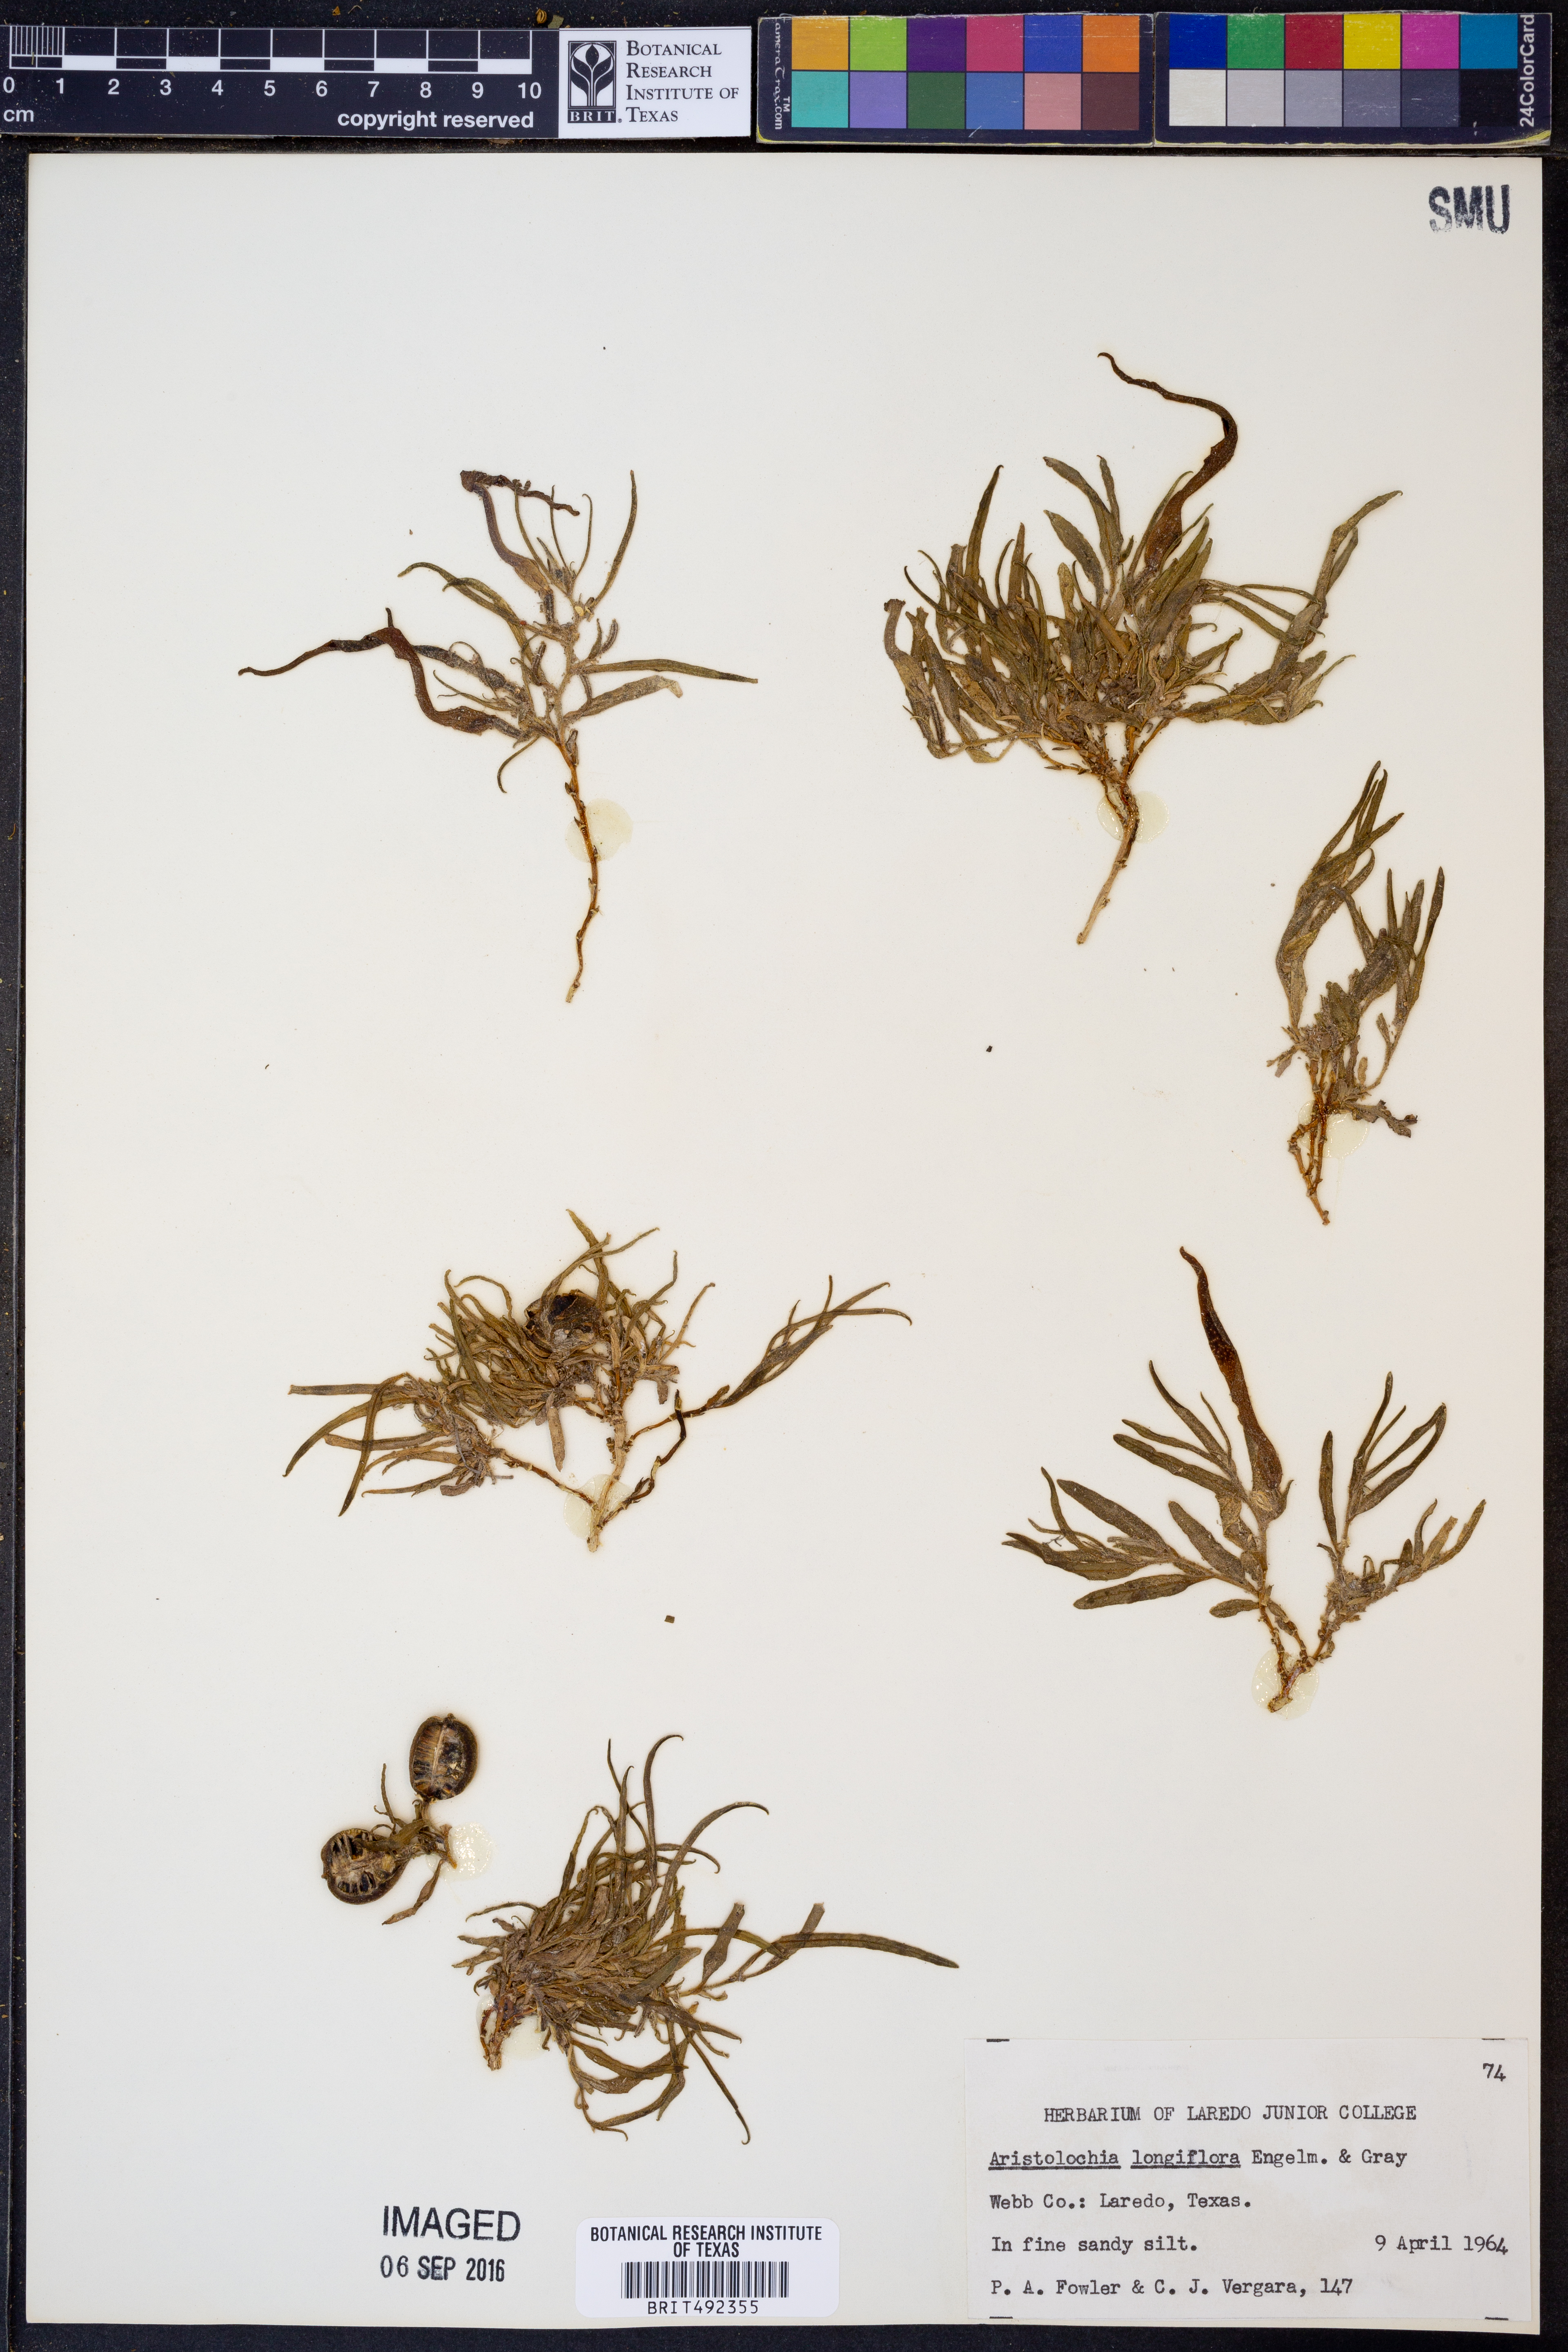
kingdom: Plantae
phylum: Tracheophyta
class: Magnoliopsida
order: Piperales
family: Aristolochiaceae
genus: Aristolochia
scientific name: Aristolochia acuminata
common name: Indian birthwort
